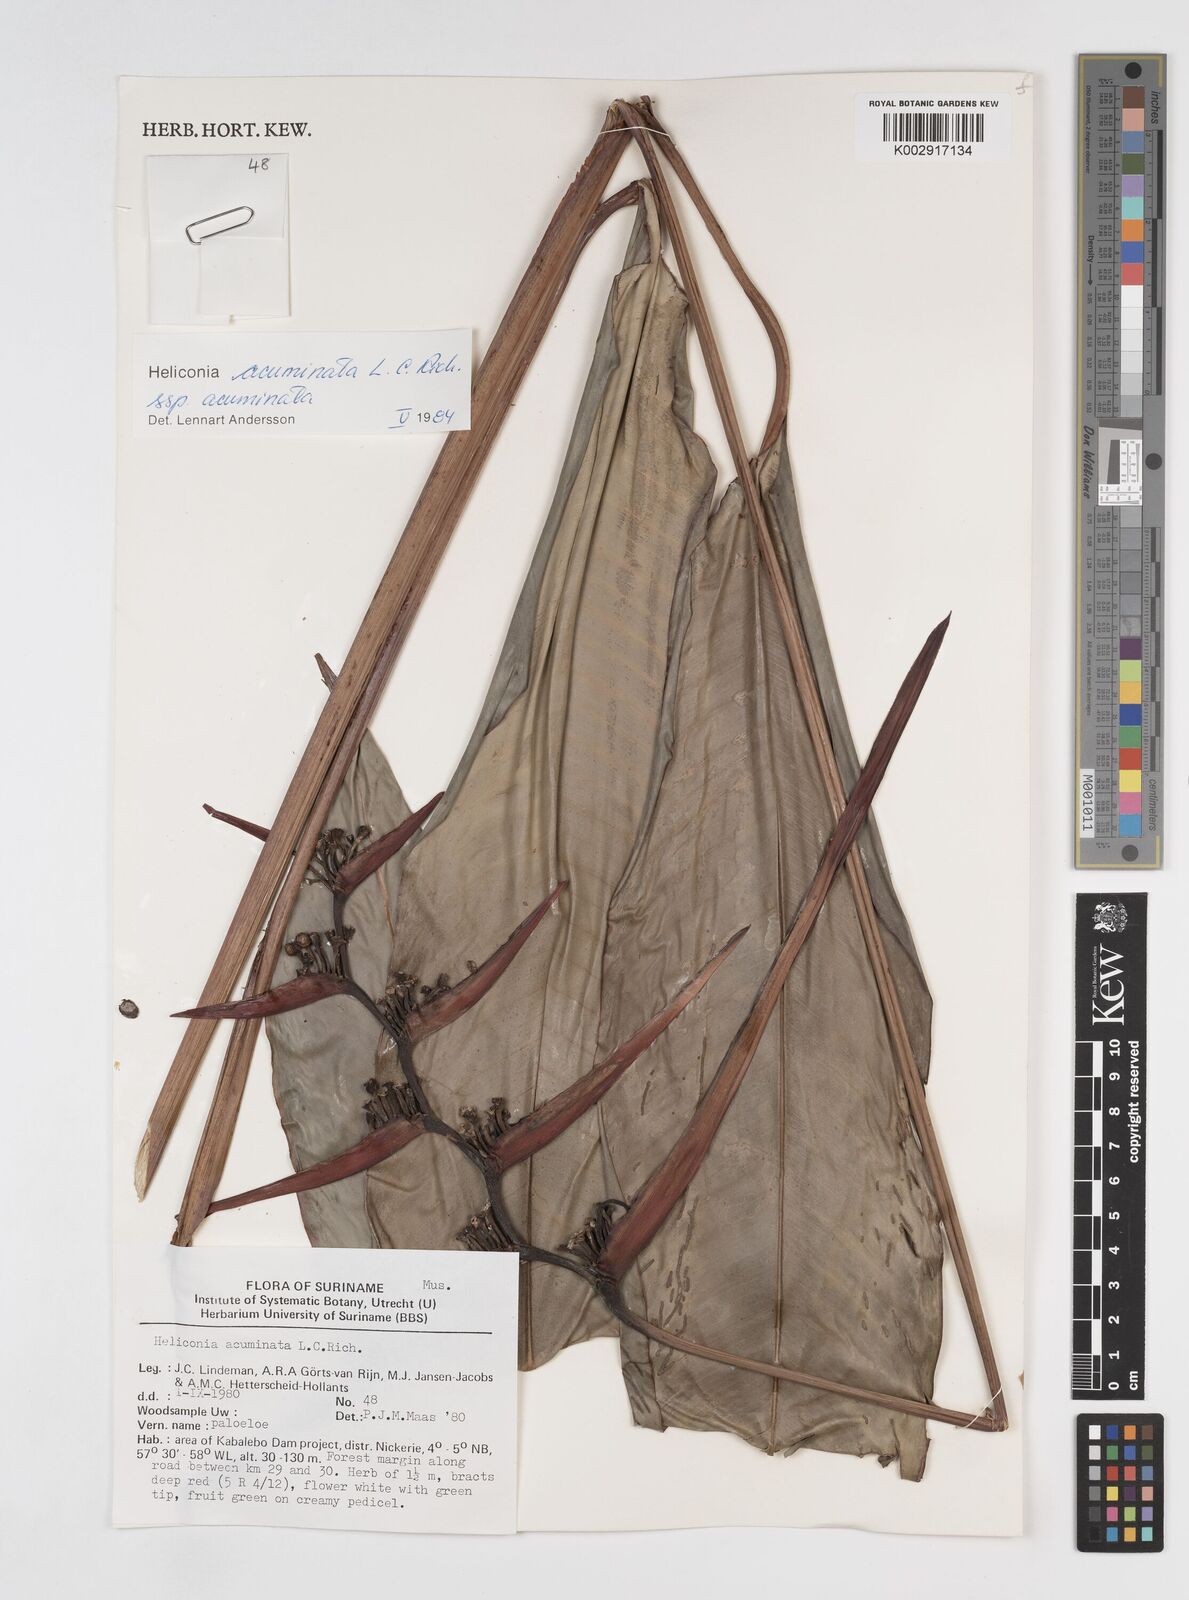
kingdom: Plantae
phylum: Tracheophyta
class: Liliopsida
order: Zingiberales
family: Heliconiaceae
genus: Heliconia
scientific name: Heliconia acuminata
